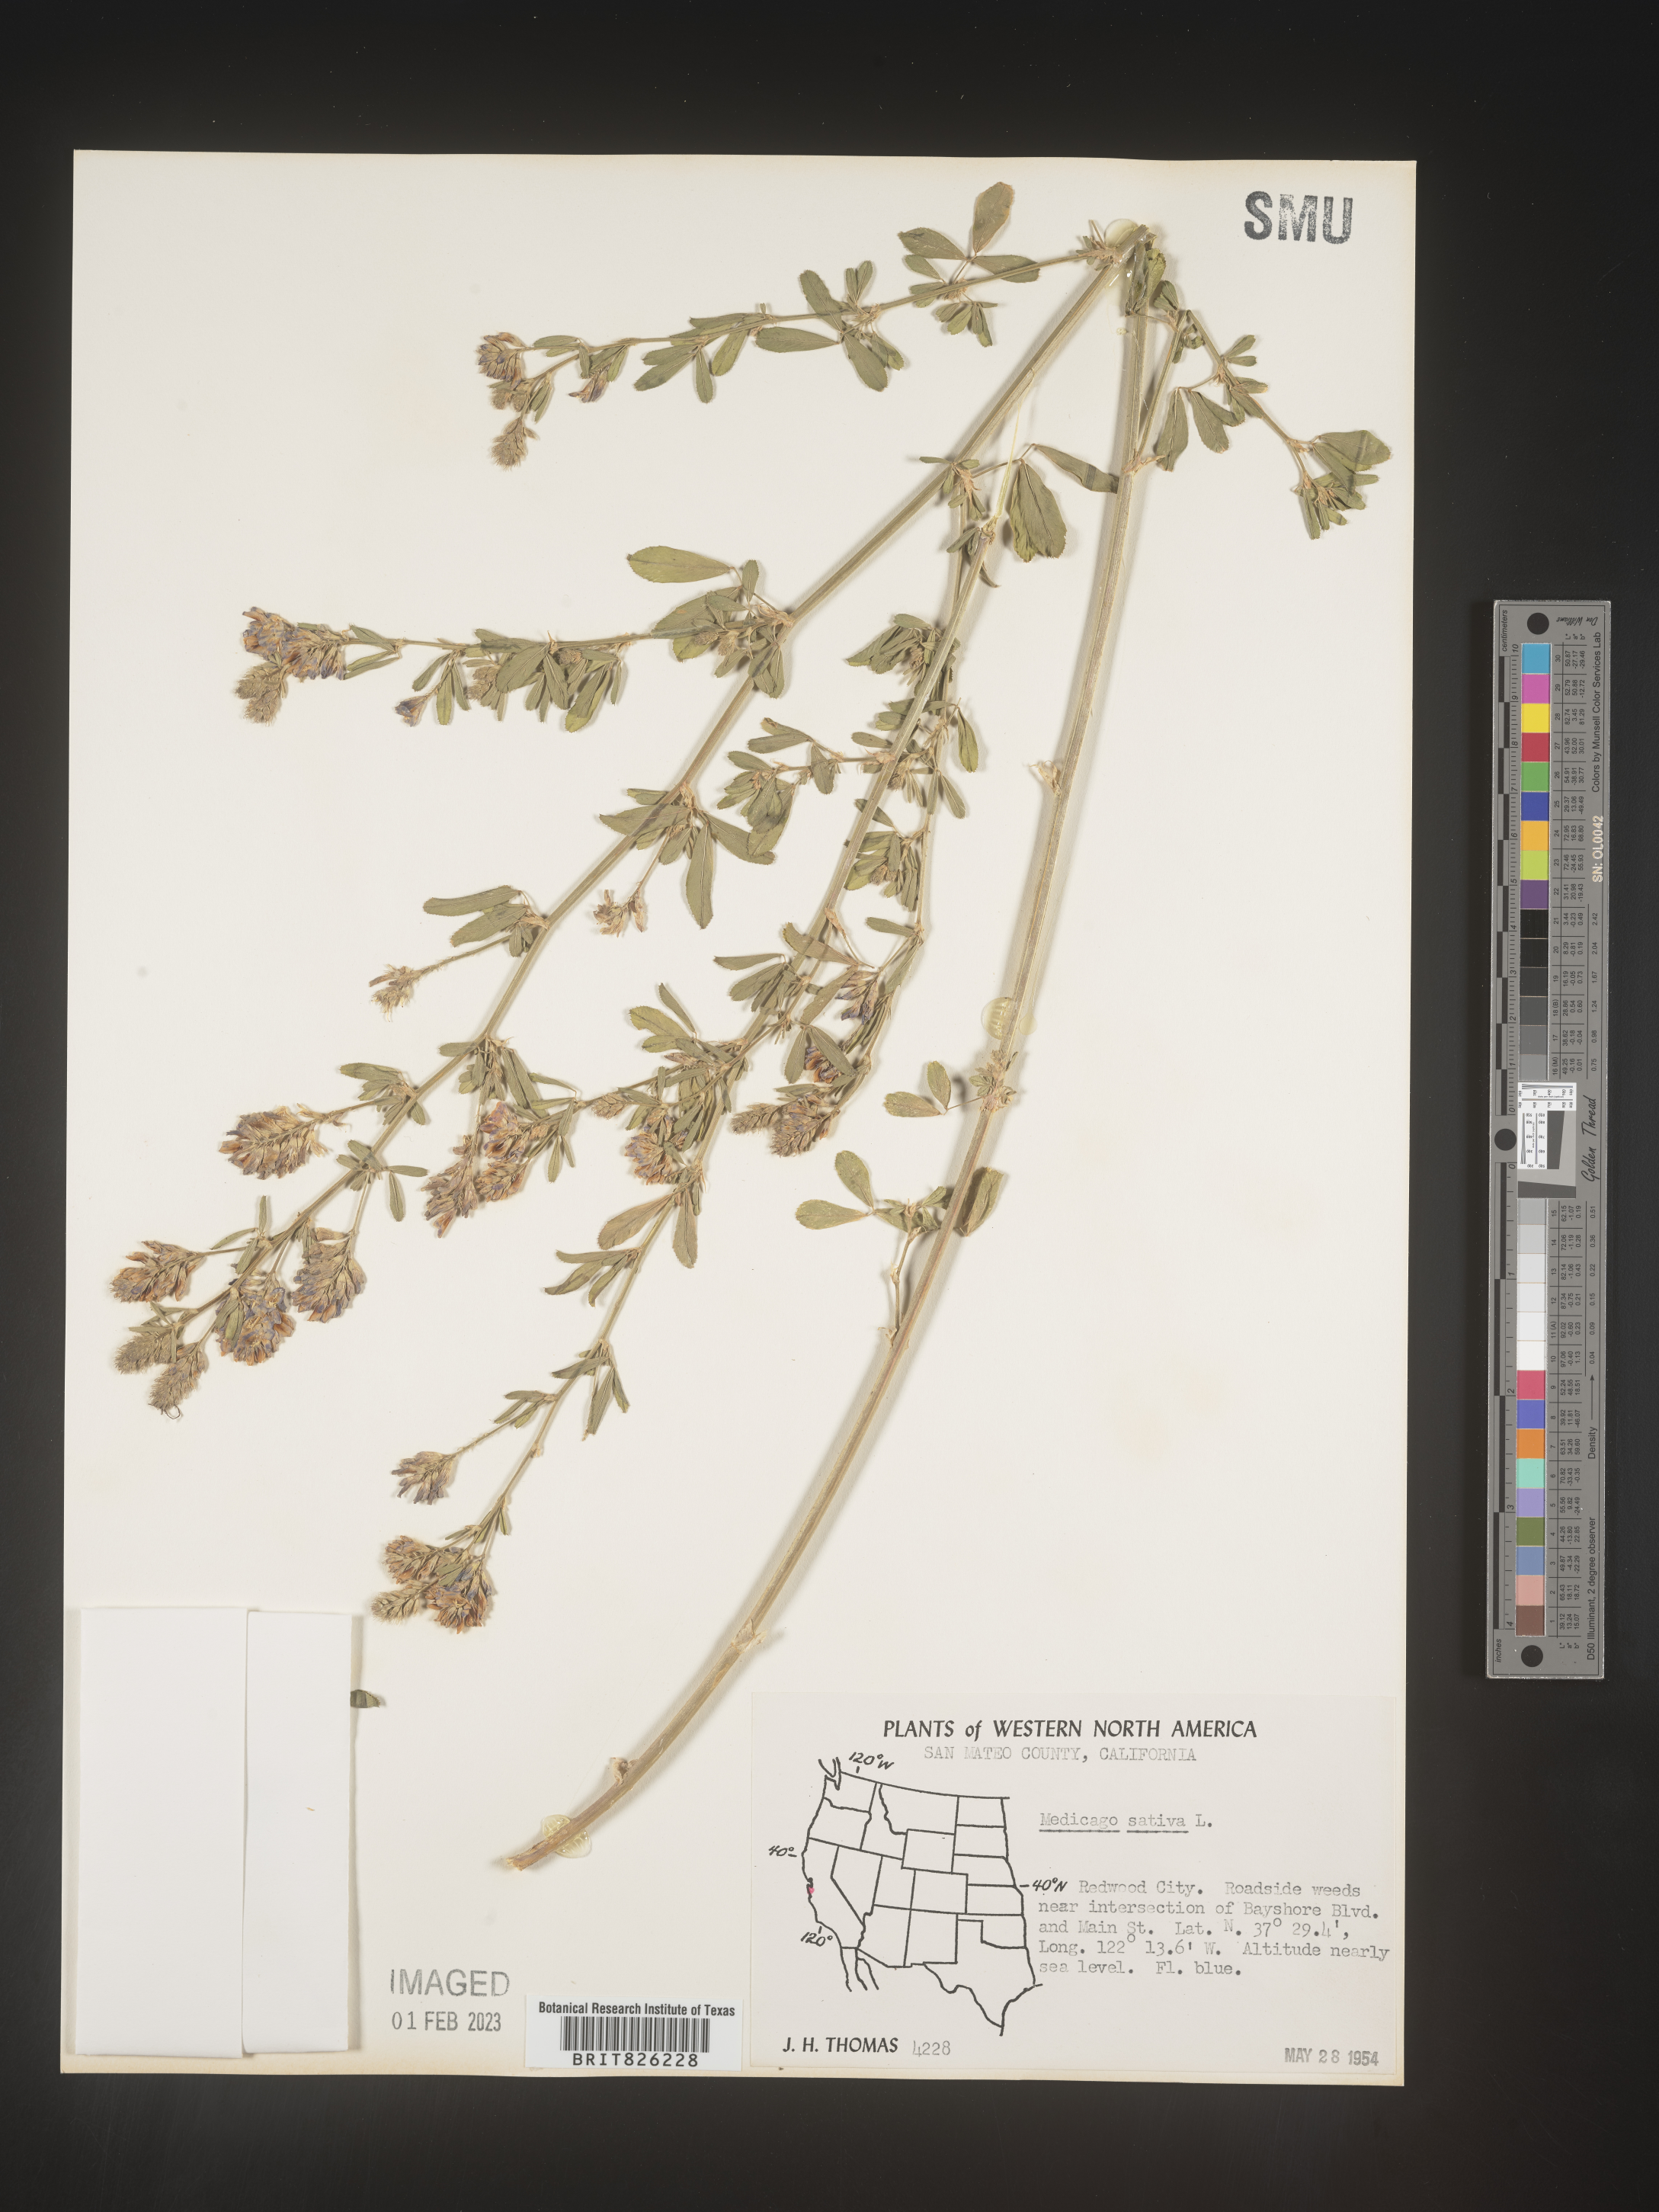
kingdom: Plantae
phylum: Tracheophyta
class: Magnoliopsida
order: Fabales
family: Fabaceae
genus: Medicago
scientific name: Medicago sativa
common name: Alfalfa
